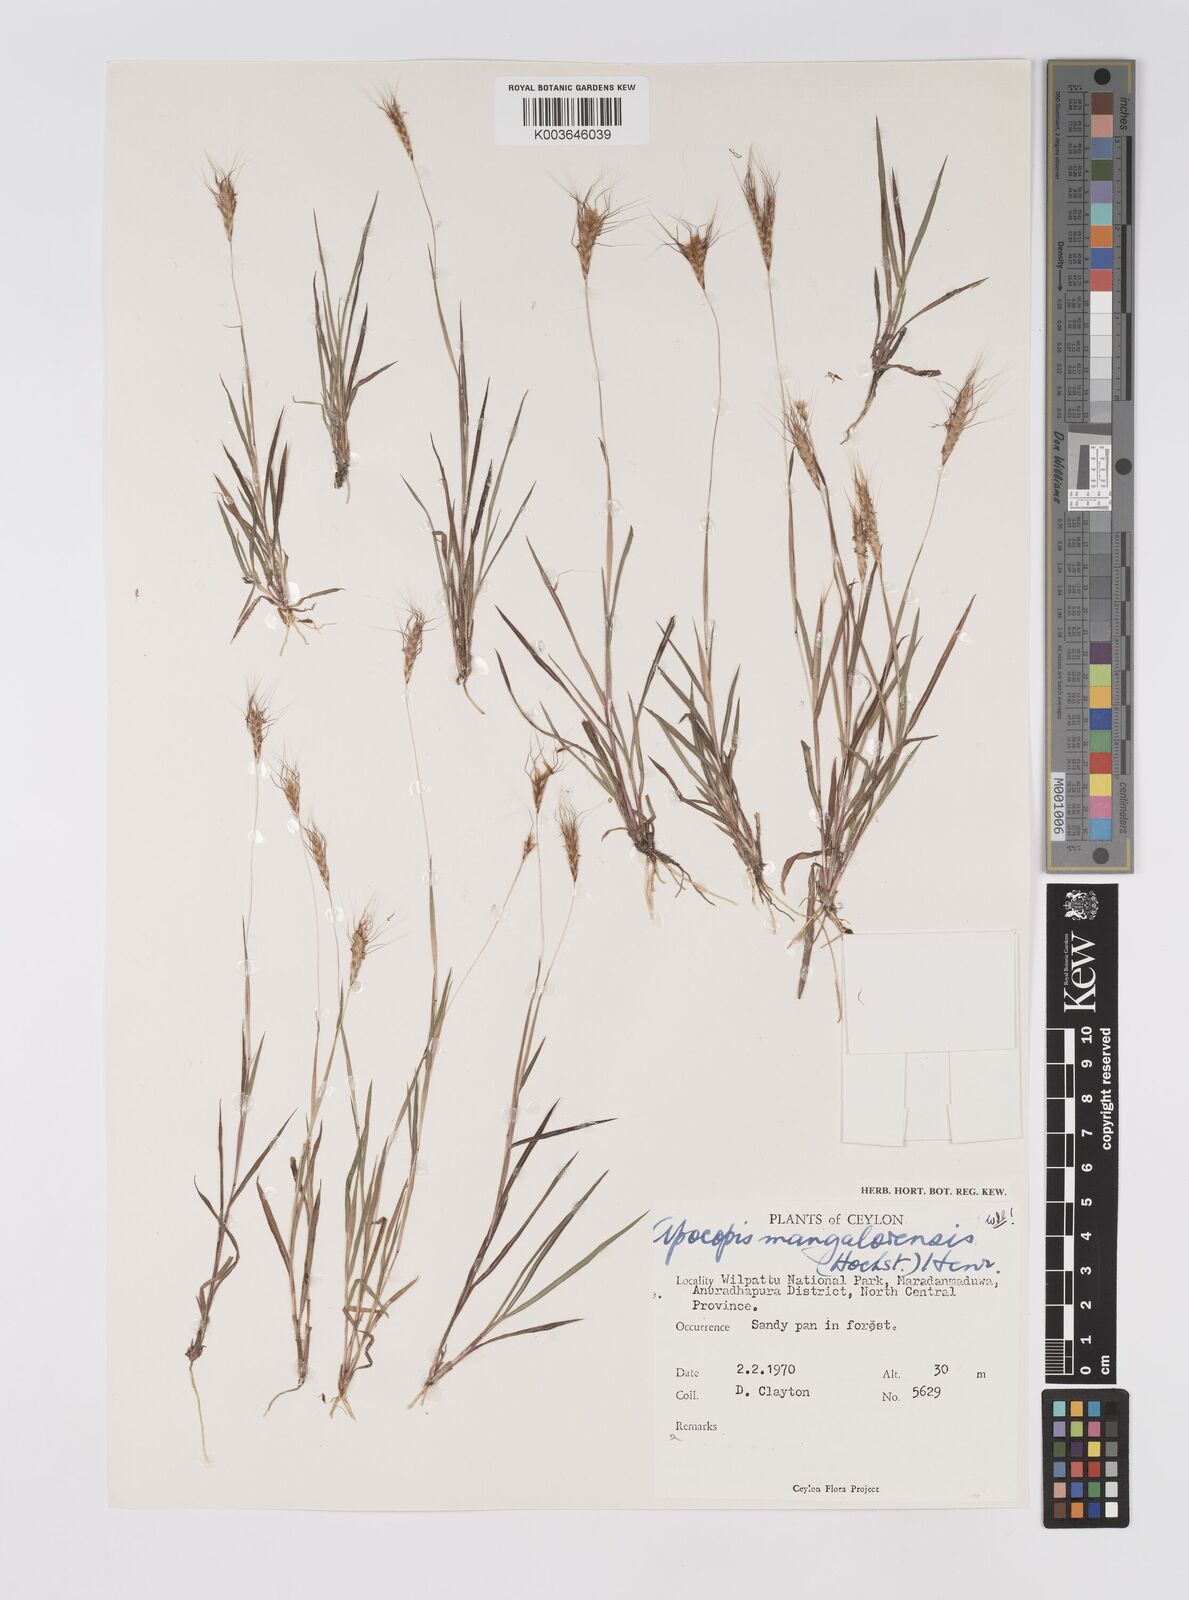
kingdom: Plantae
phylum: Tracheophyta
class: Liliopsida
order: Poales
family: Poaceae
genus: Apocopis
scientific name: Apocopis mangalorensis
